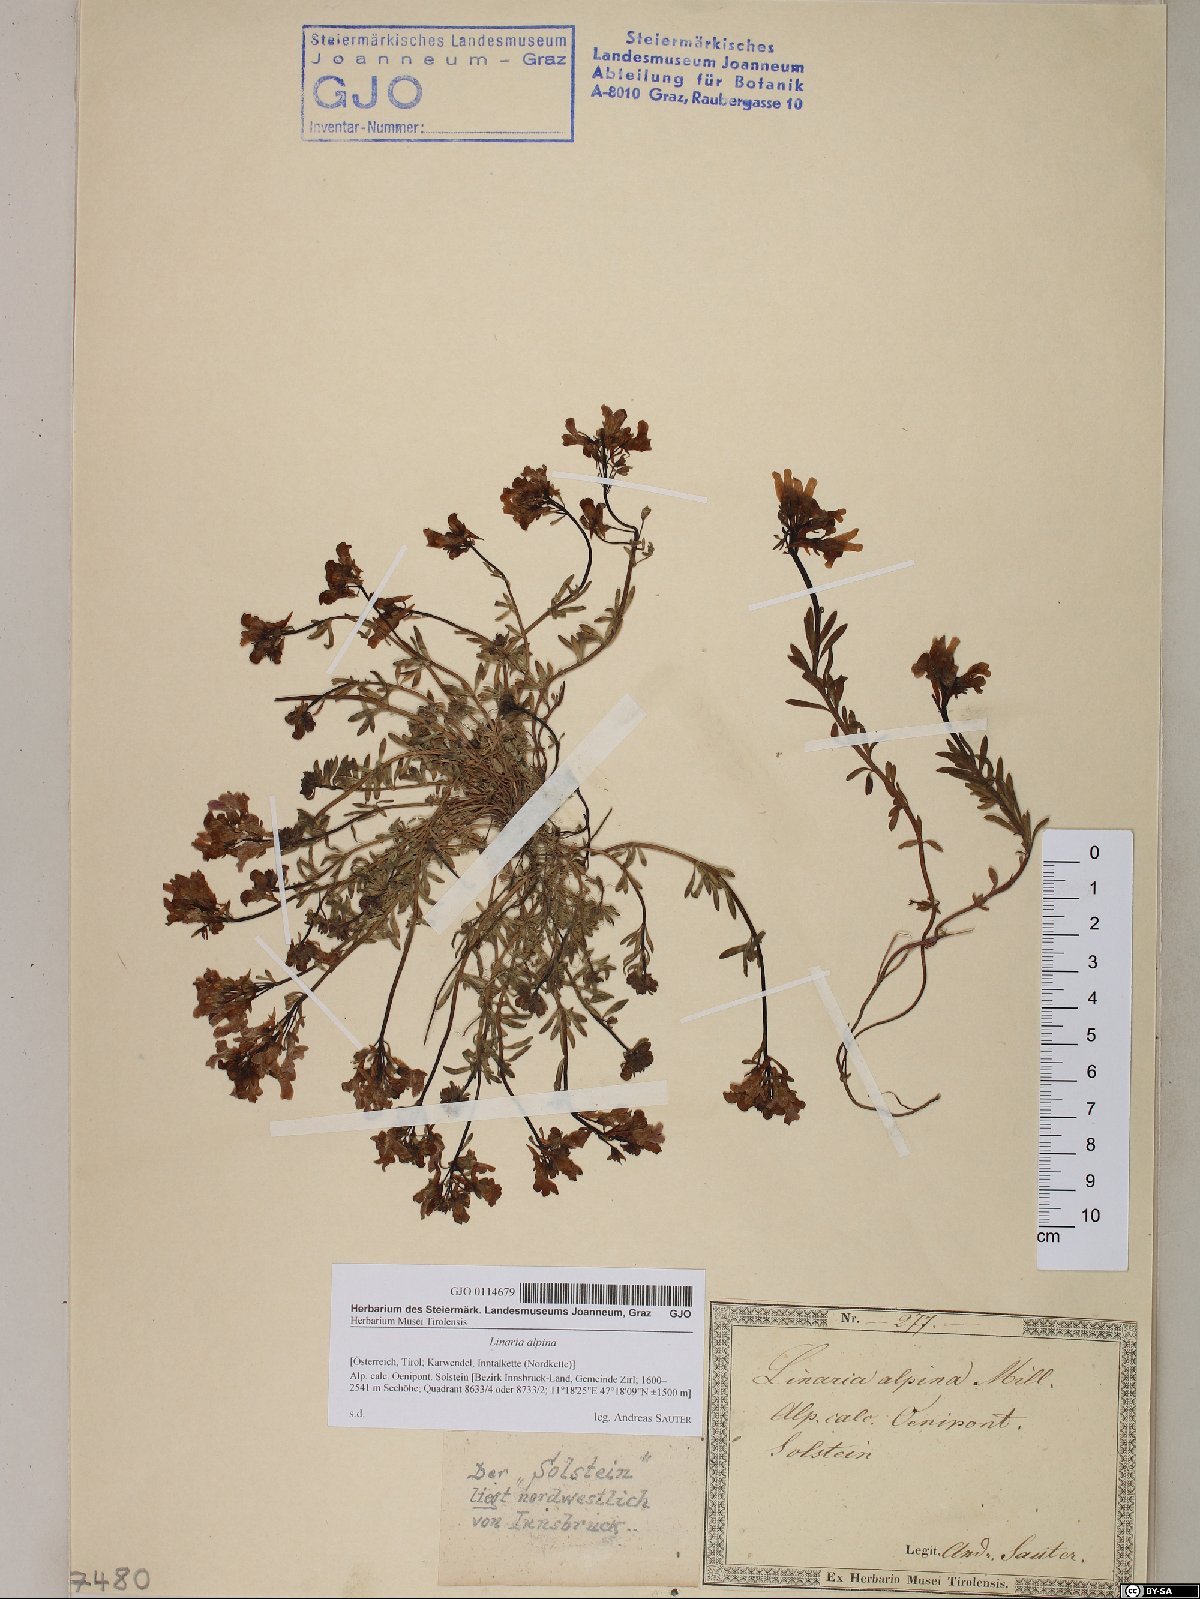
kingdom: Plantae
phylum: Tracheophyta
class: Magnoliopsida
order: Lamiales
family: Plantaginaceae
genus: Linaria
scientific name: Linaria alpina
